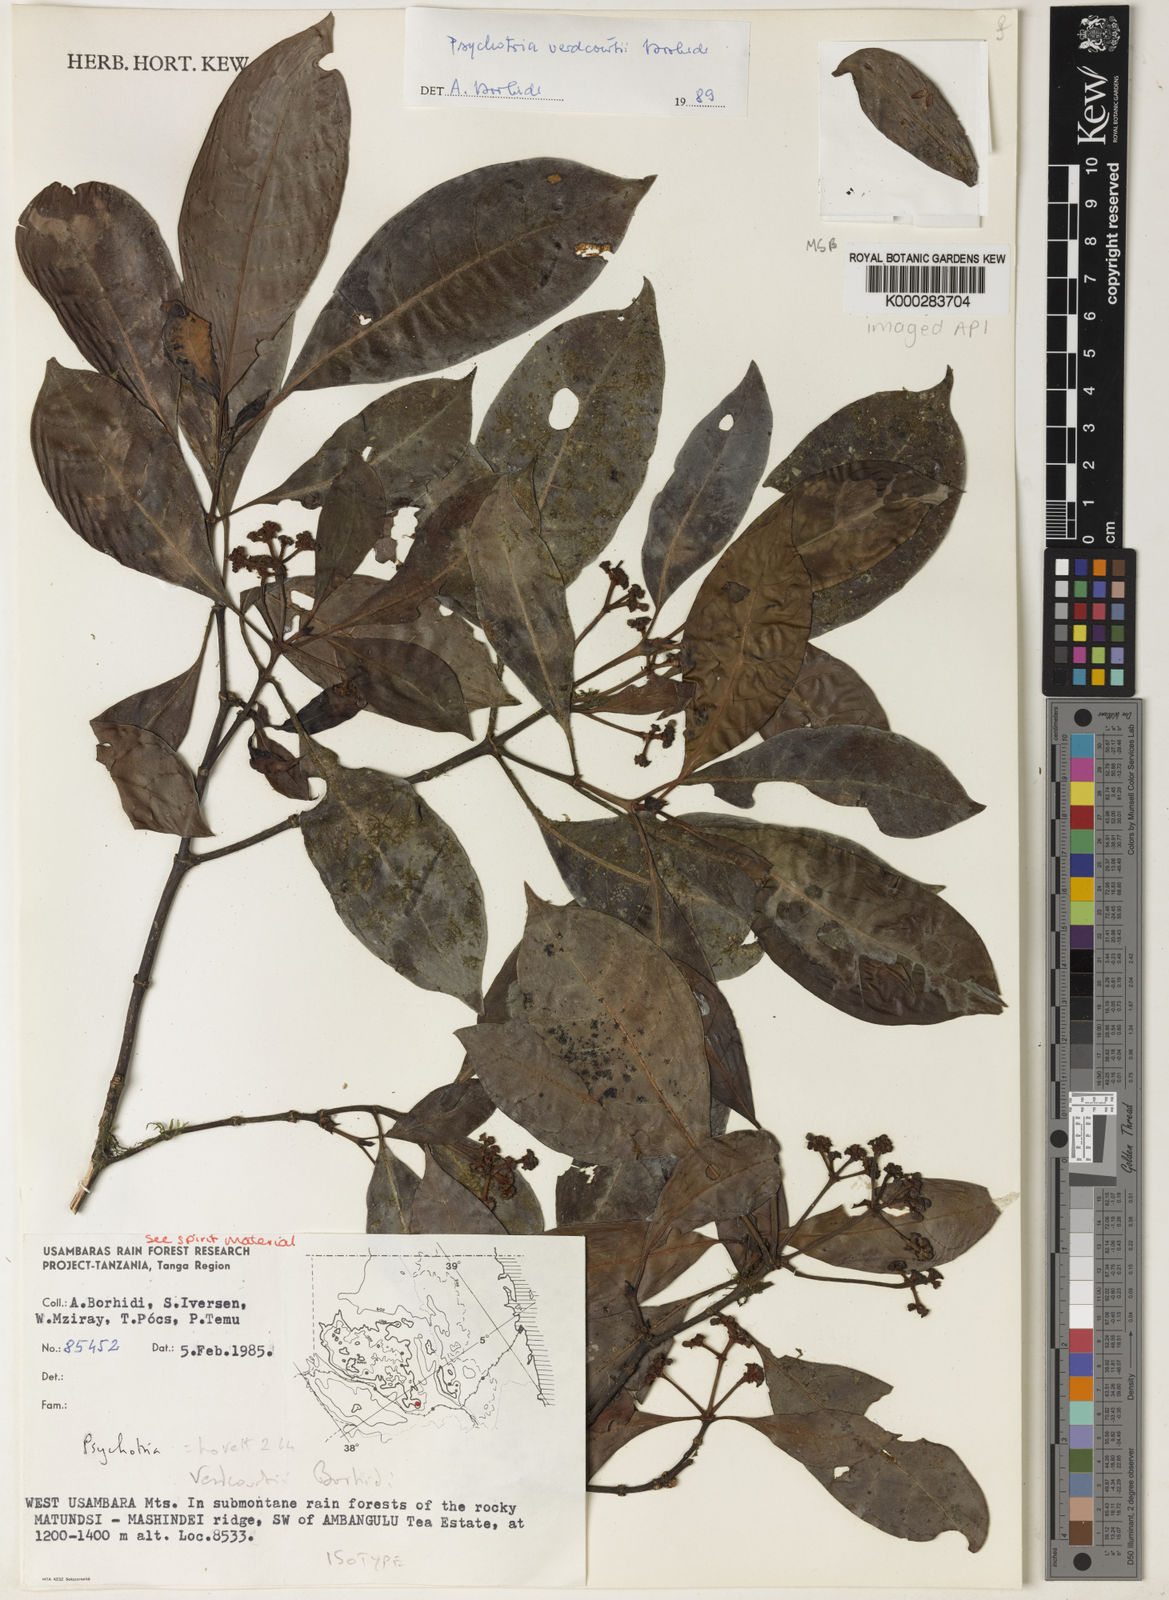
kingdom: Plantae
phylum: Tracheophyta
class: Magnoliopsida
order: Gentianales
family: Rubiaceae
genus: Psychotria
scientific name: Psychotria verdcourtii
